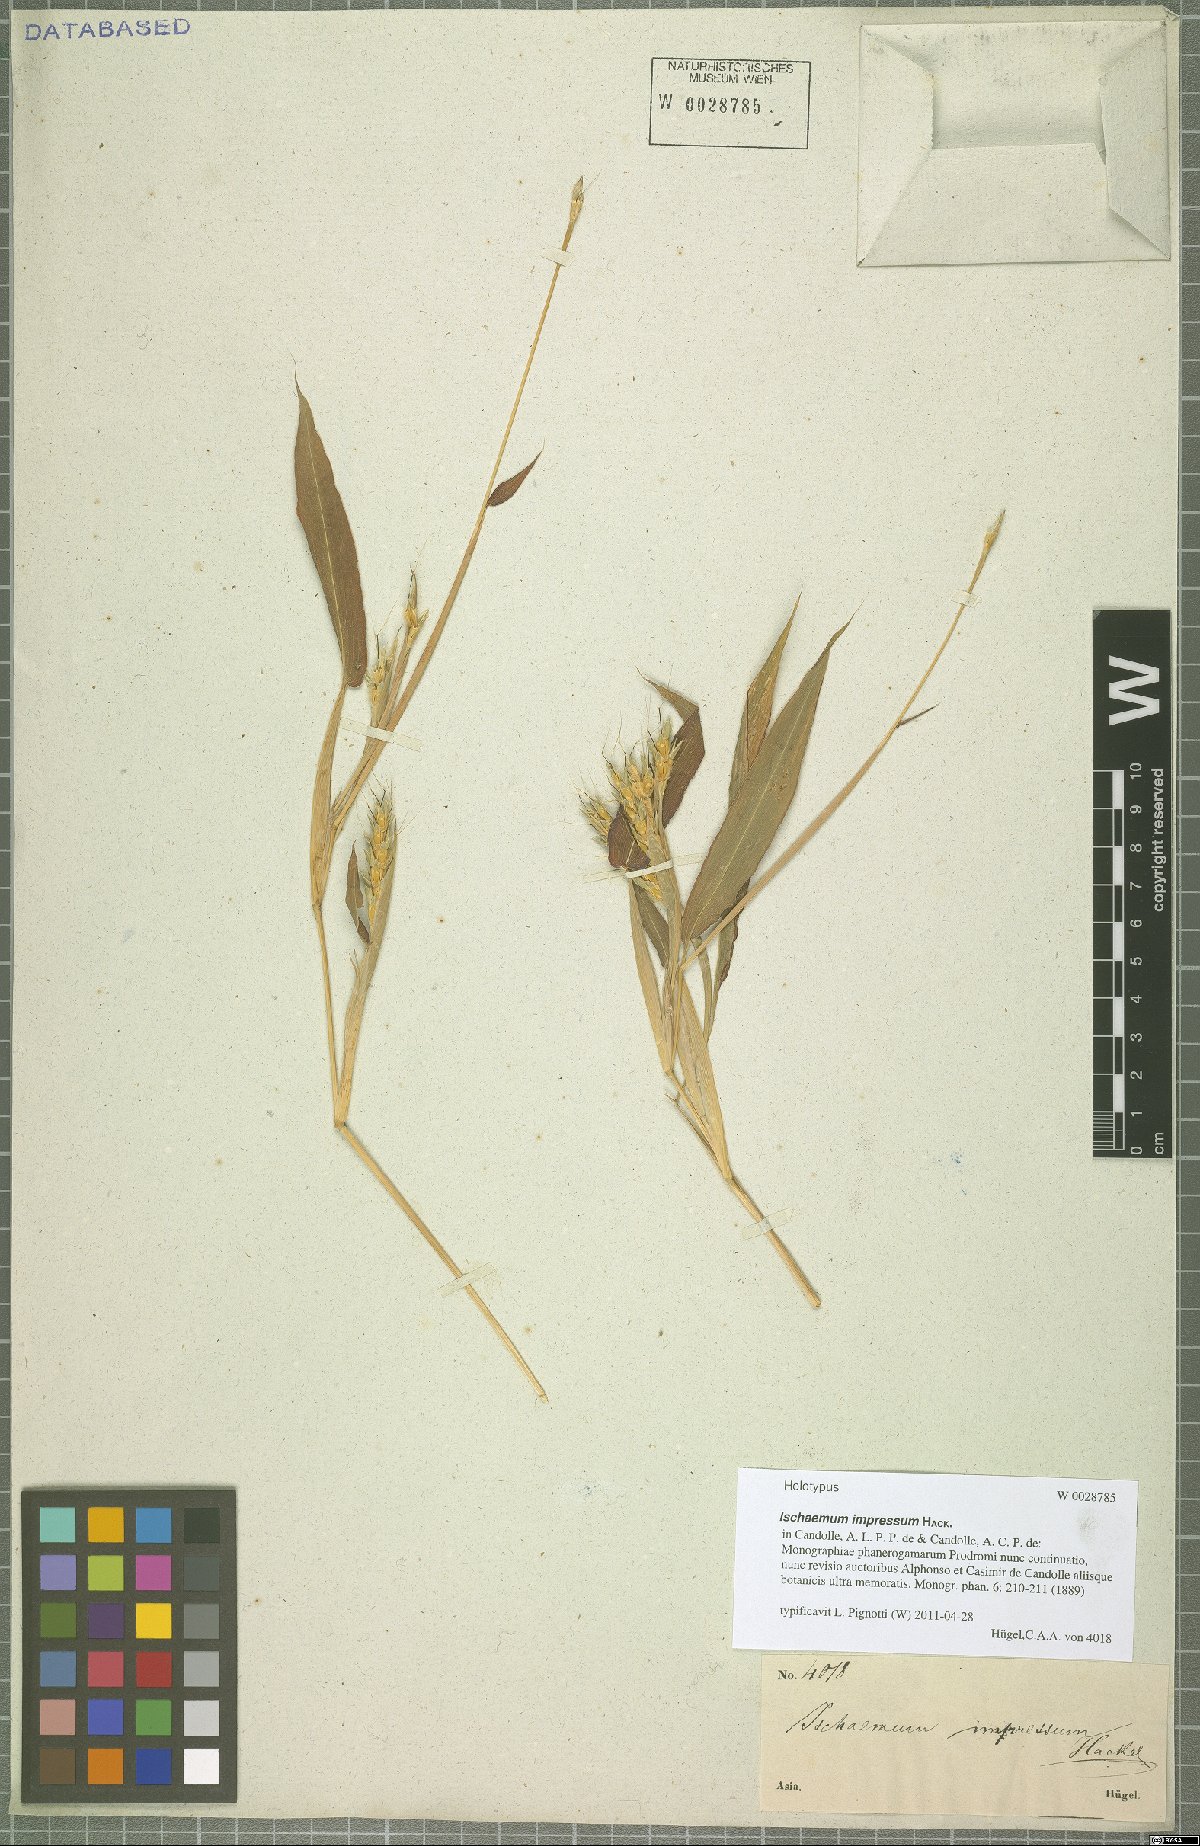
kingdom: Plantae
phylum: Tracheophyta
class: Liliopsida
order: Poales
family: Poaceae
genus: Ischaemum
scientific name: Ischaemum impressum
